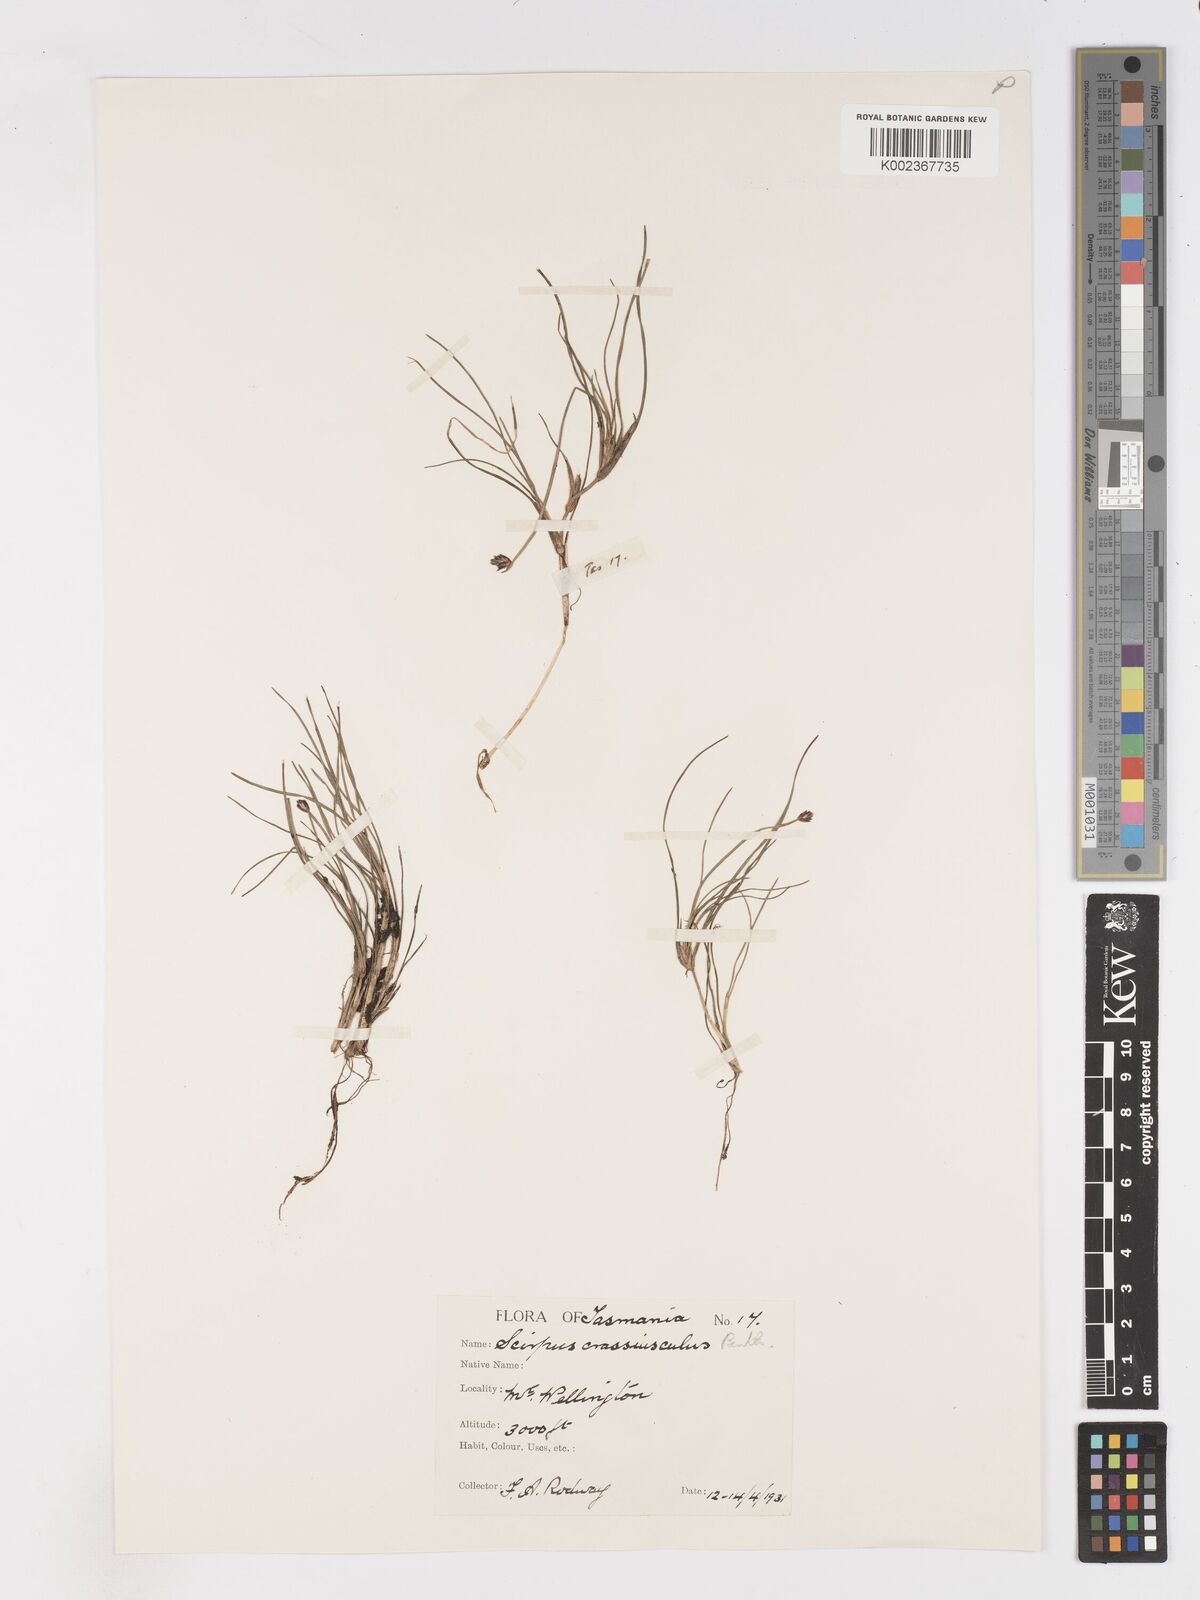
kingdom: Plantae
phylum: Tracheophyta
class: Liliopsida
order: Poales
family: Cyperaceae
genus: Isolepis
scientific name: Isolepis crassiuscula
